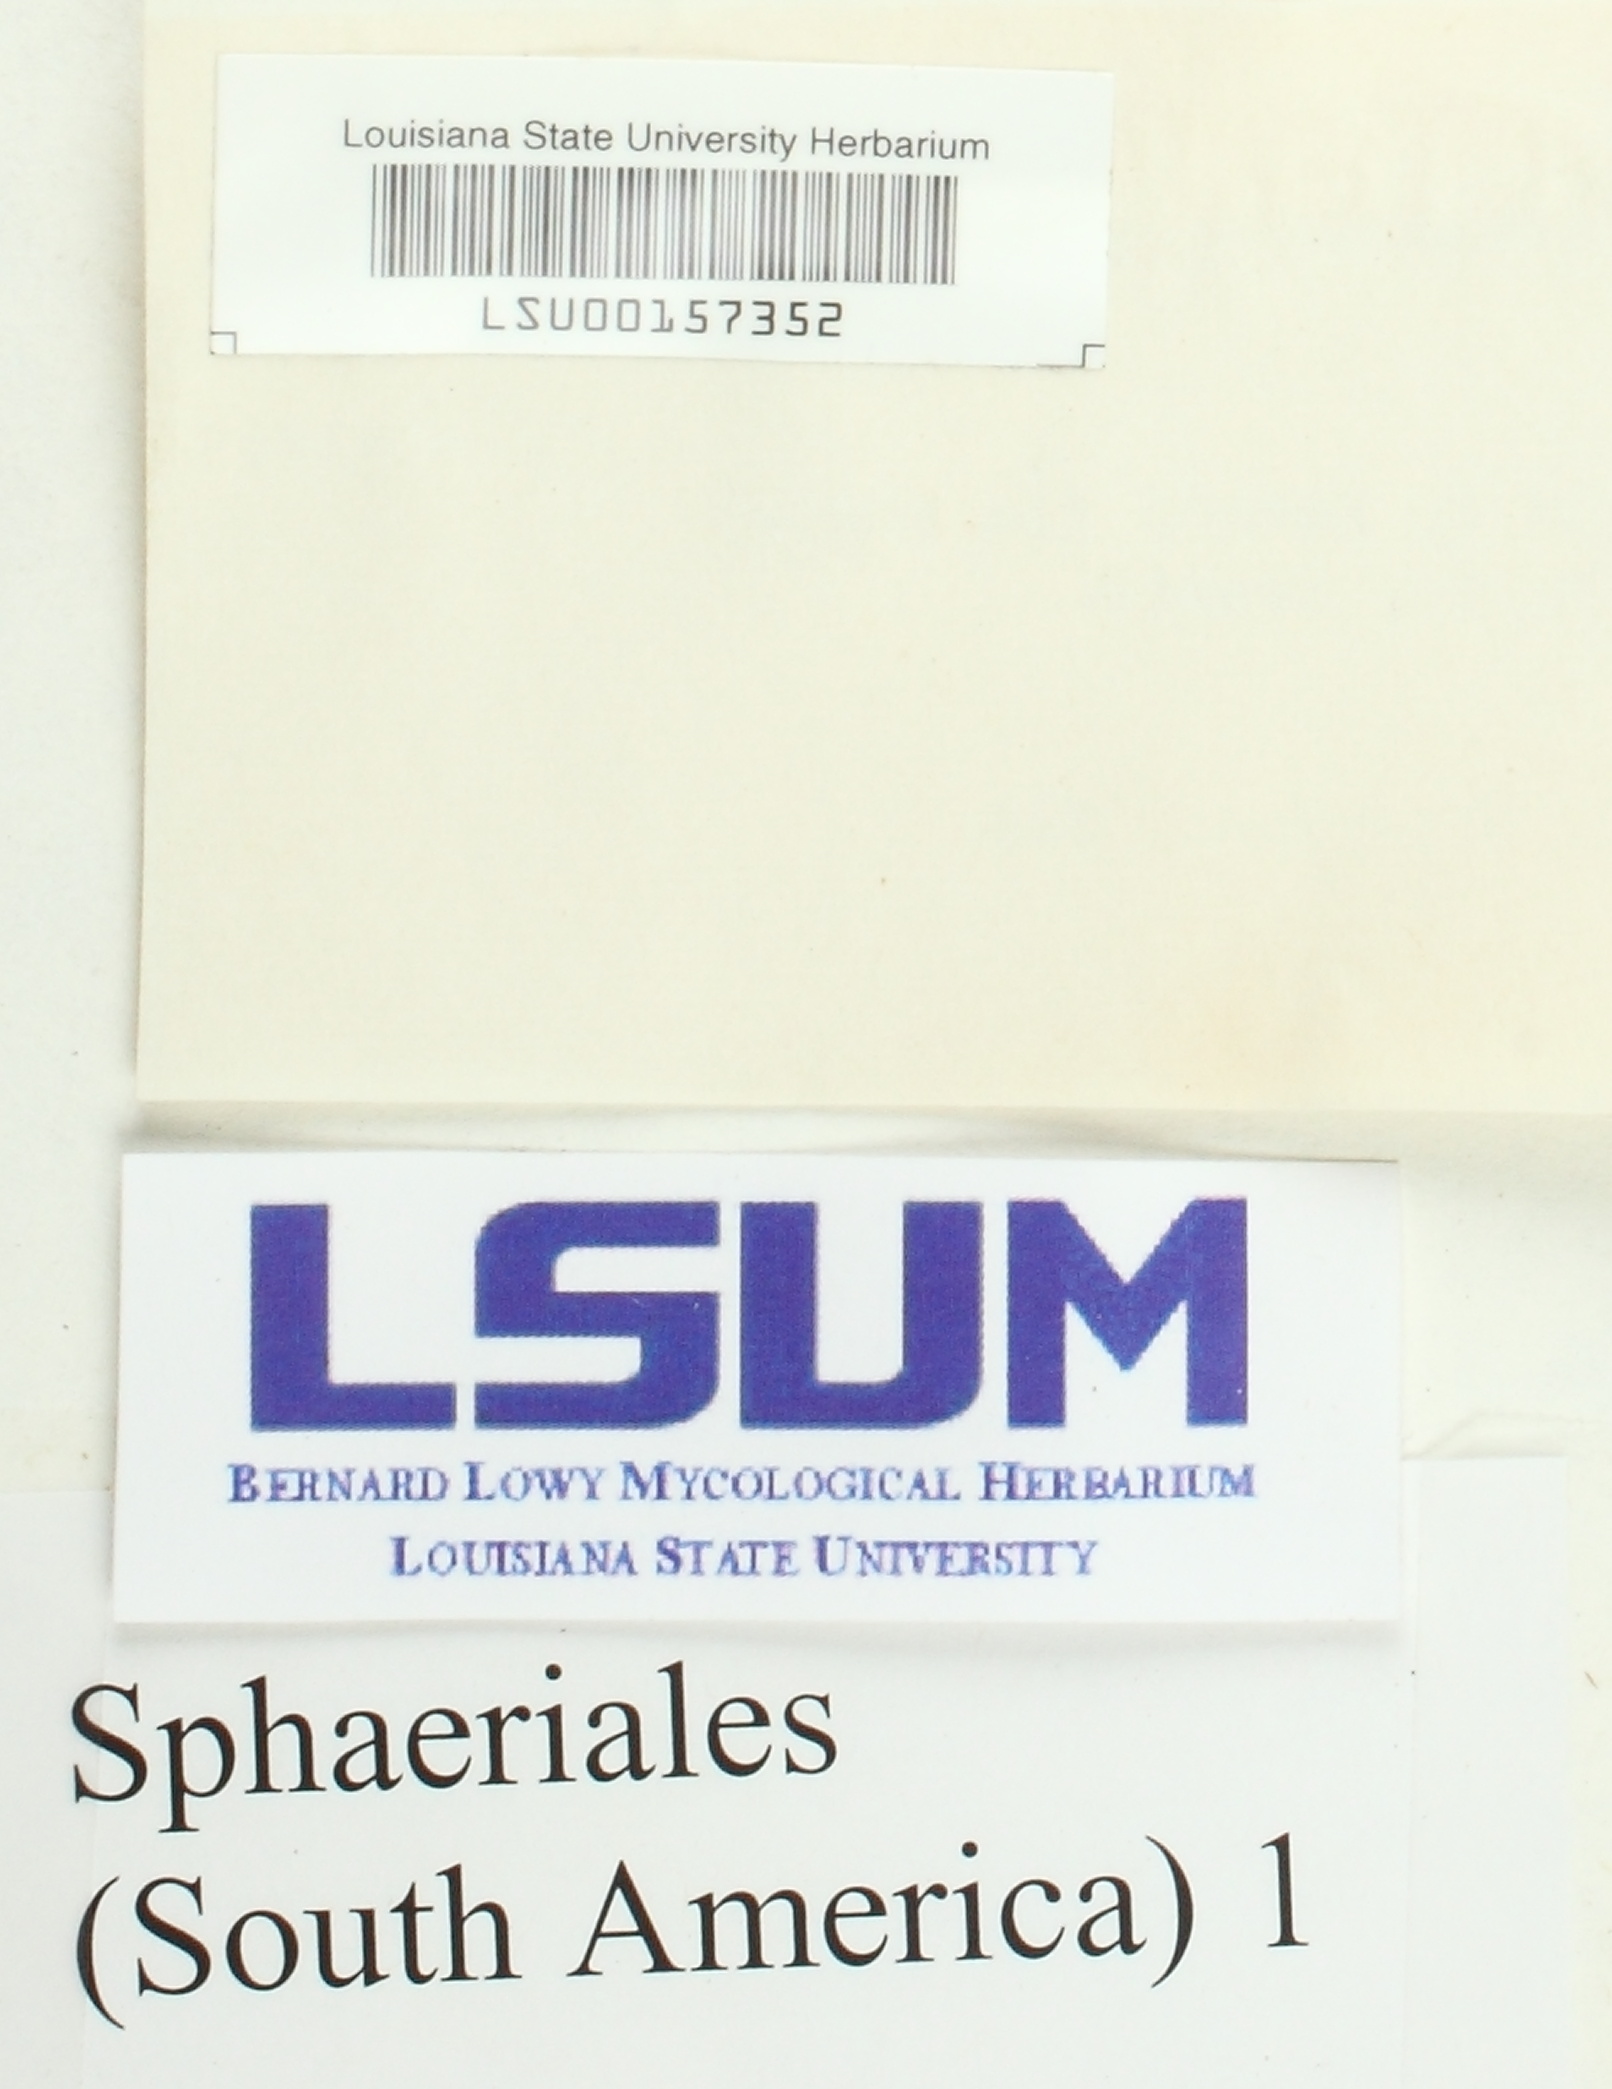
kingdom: Fungi
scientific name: Fungi
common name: Fungi
